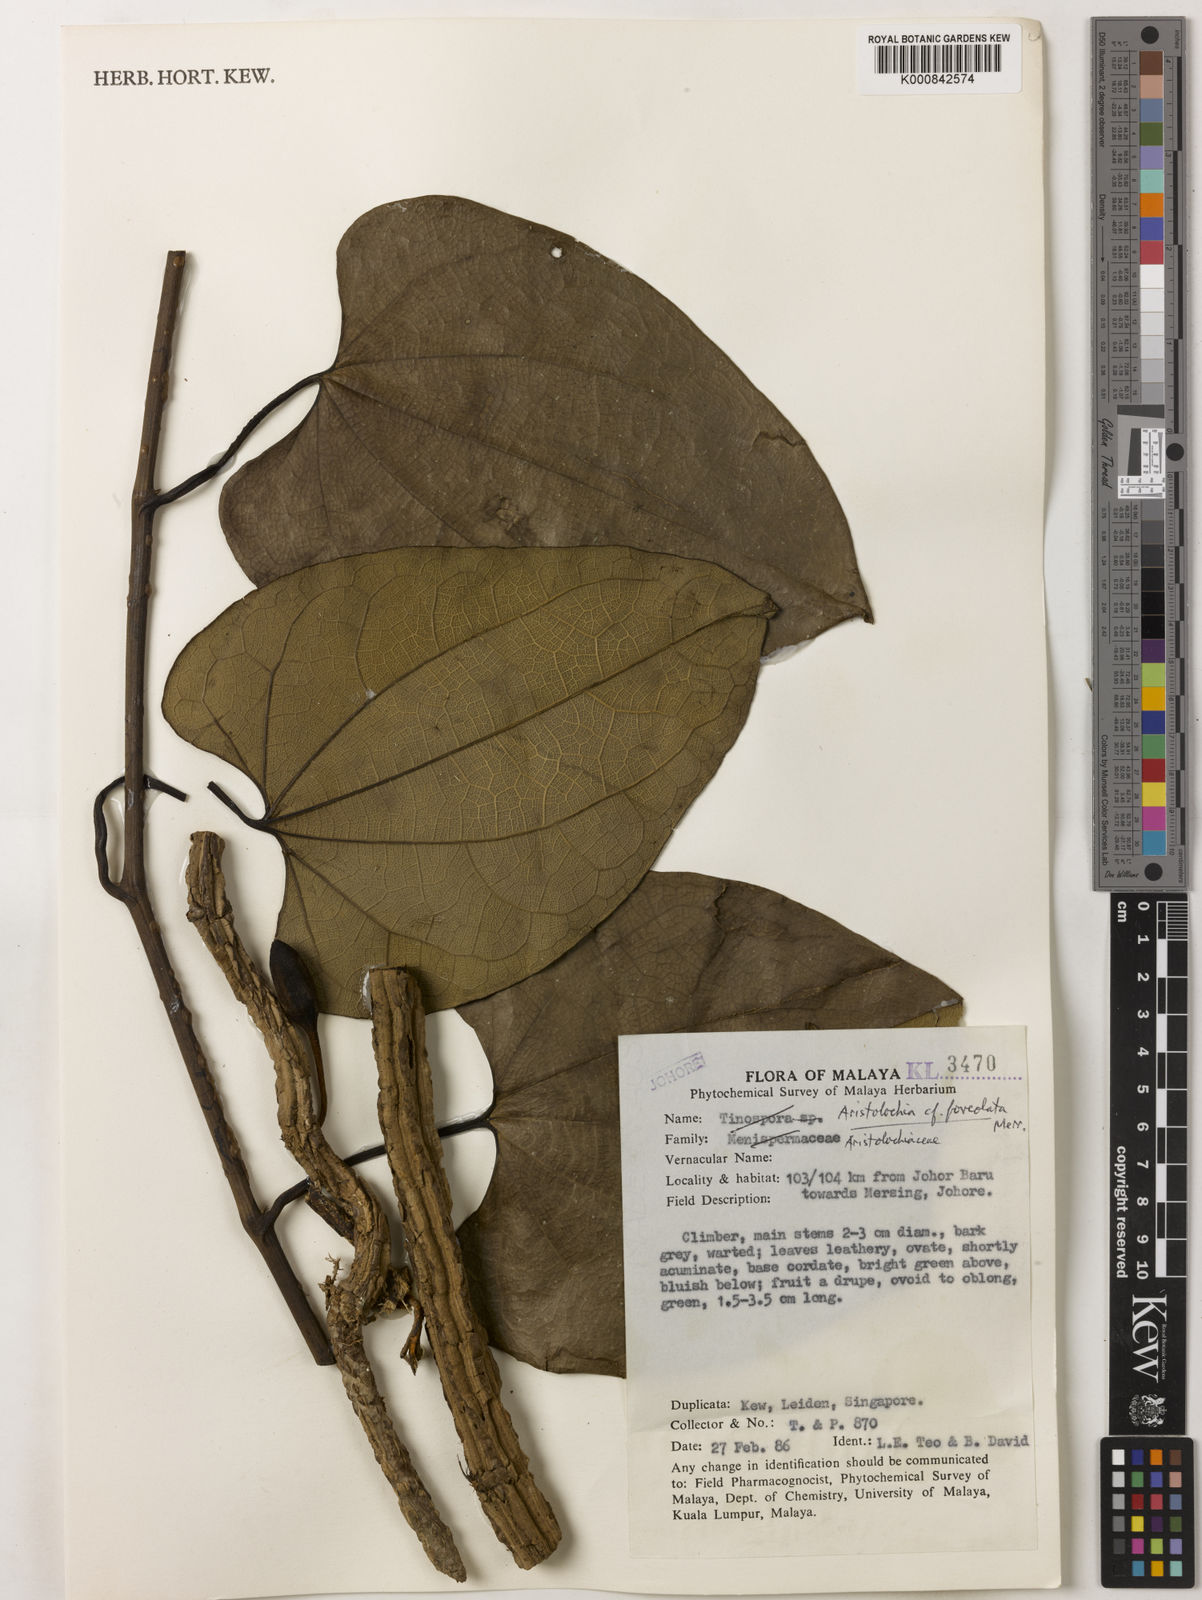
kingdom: Plantae
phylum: Tracheophyta
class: Magnoliopsida
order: Piperales
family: Aristolochiaceae
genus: Aristolochia
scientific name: Aristolochia foveolata
